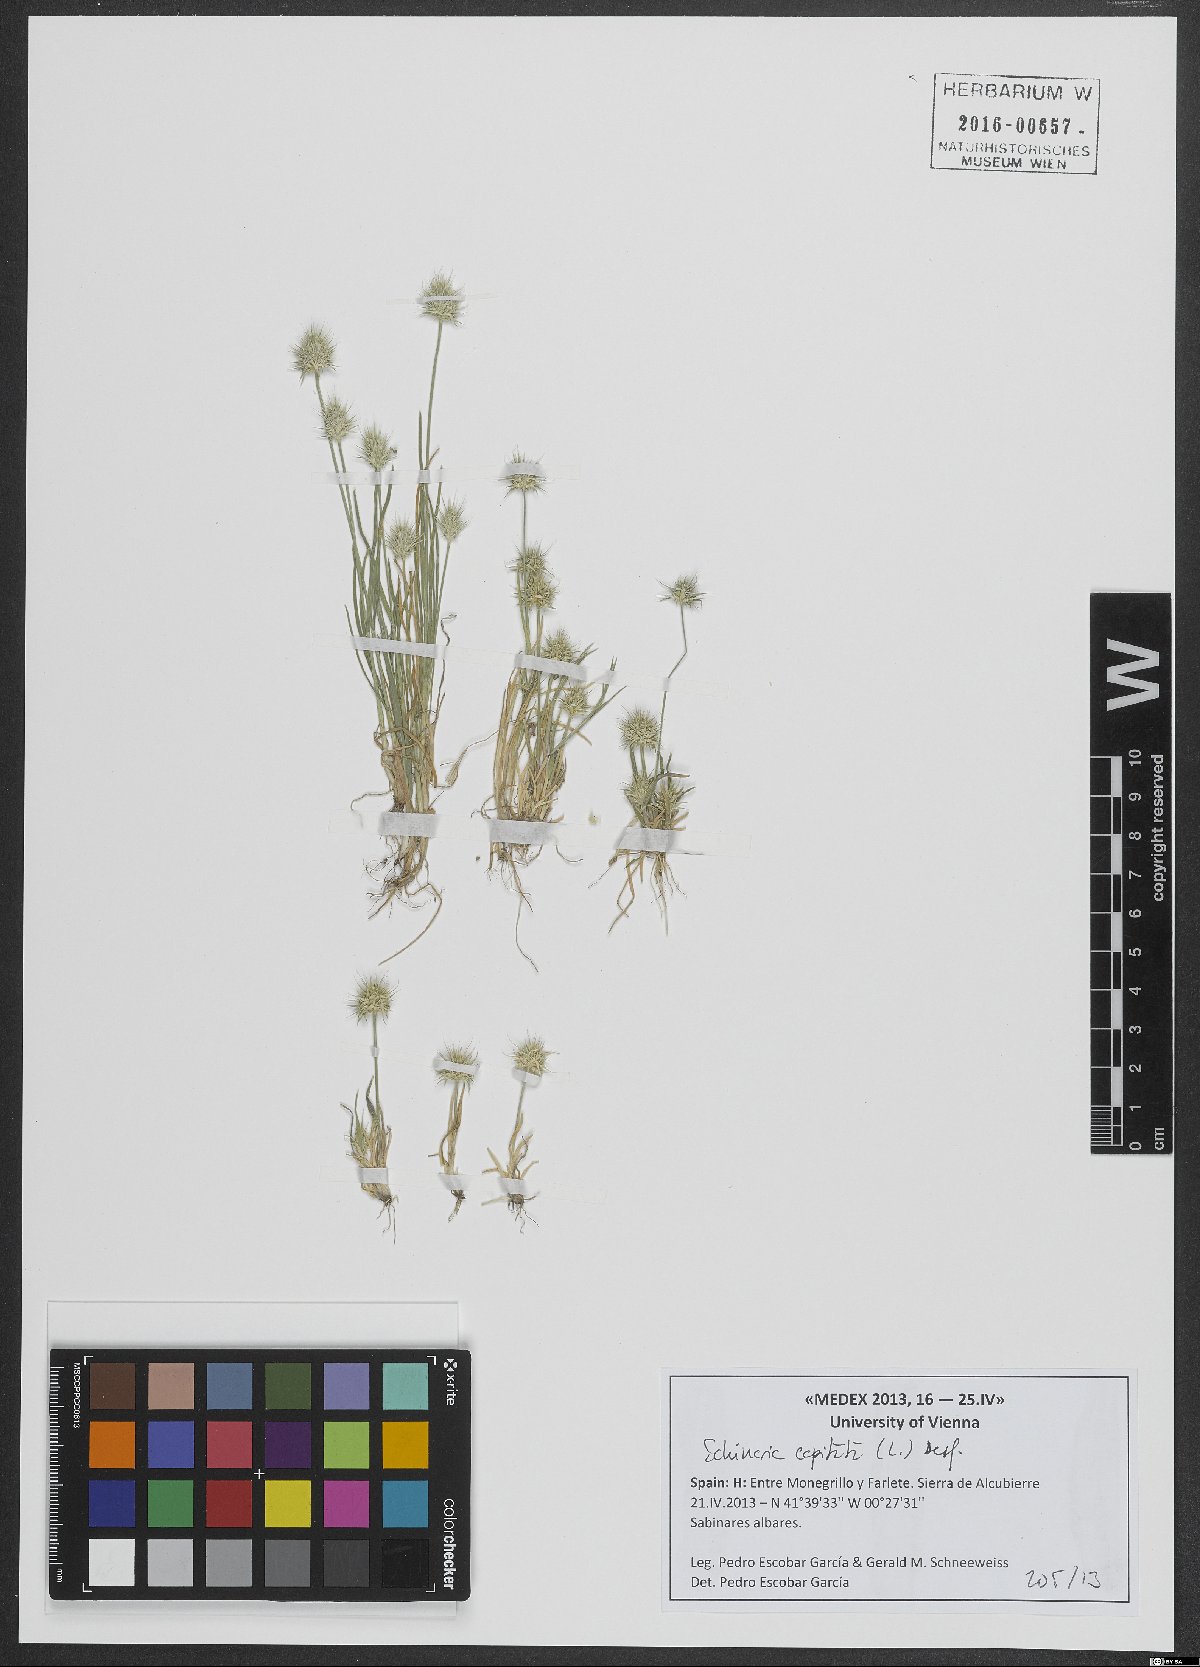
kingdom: Plantae
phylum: Tracheophyta
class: Liliopsida
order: Poales
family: Poaceae
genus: Echinaria
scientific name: Echinaria capitata
